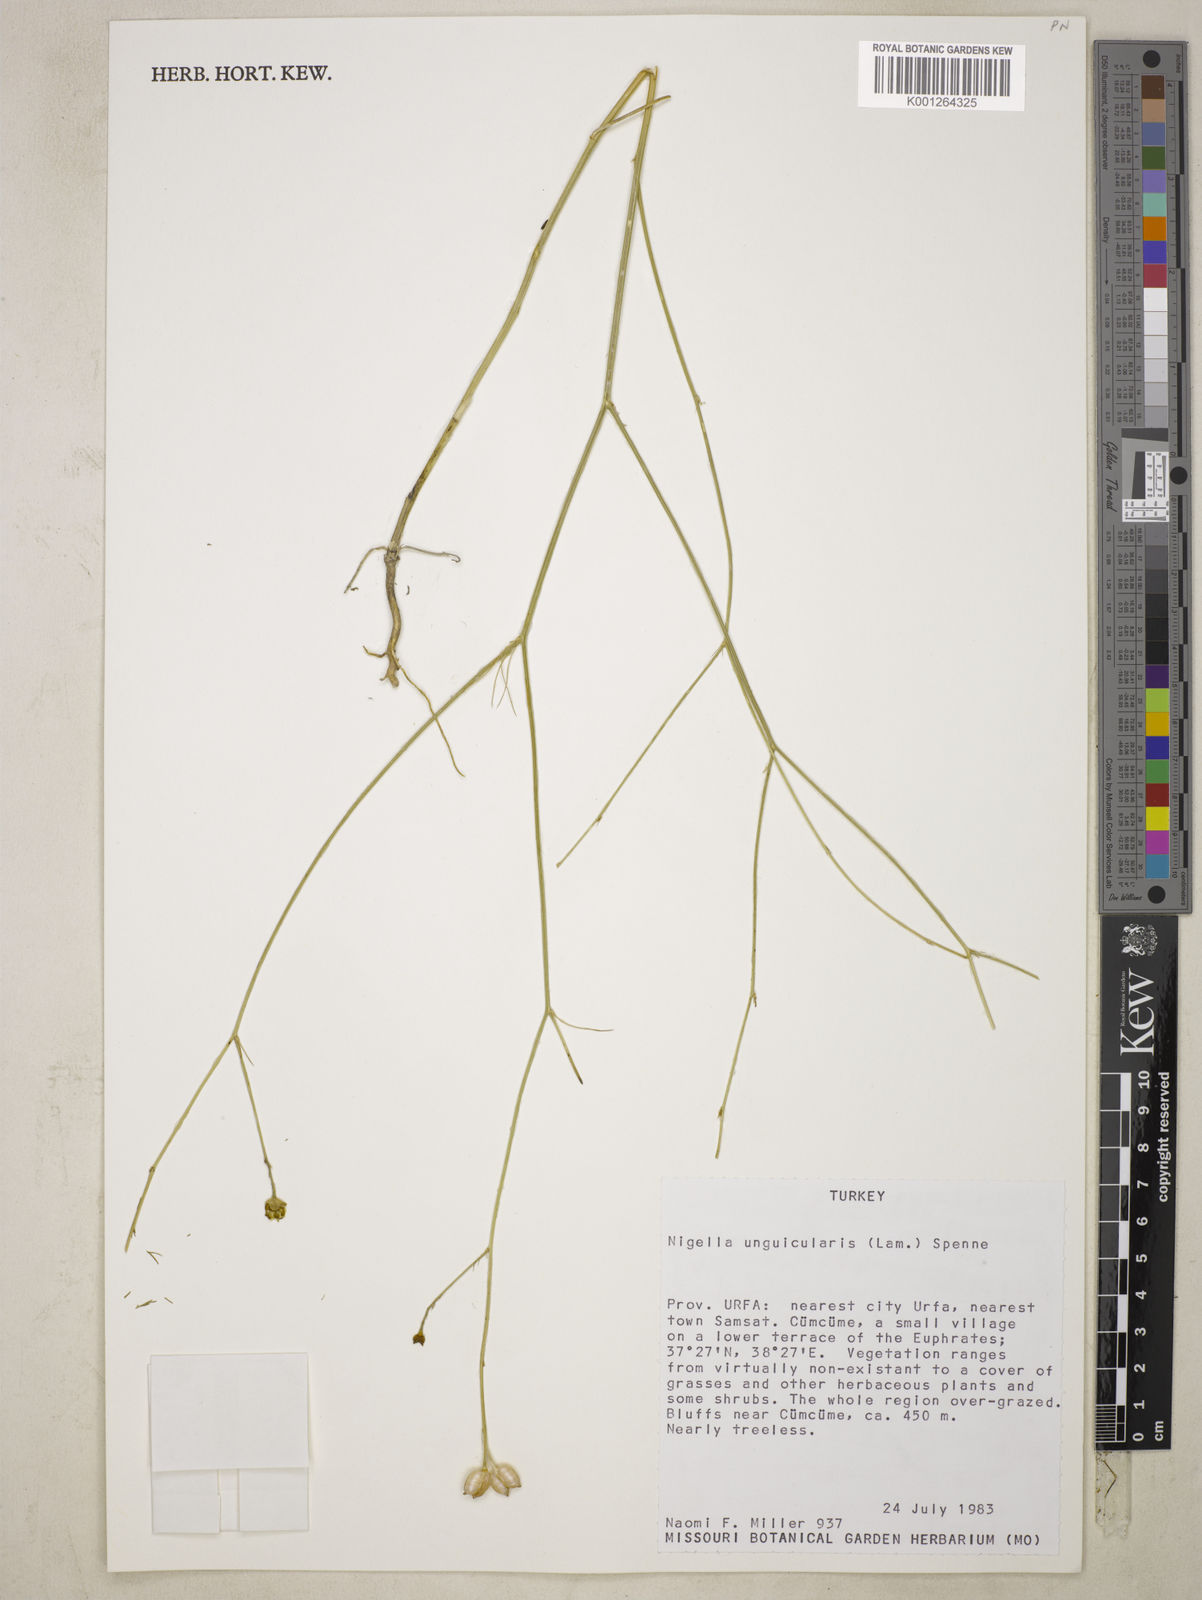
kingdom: Plantae
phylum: Tracheophyta
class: Magnoliopsida
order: Ranunculales
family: Ranunculaceae
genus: Garidella
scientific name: Garidella unguicularis
